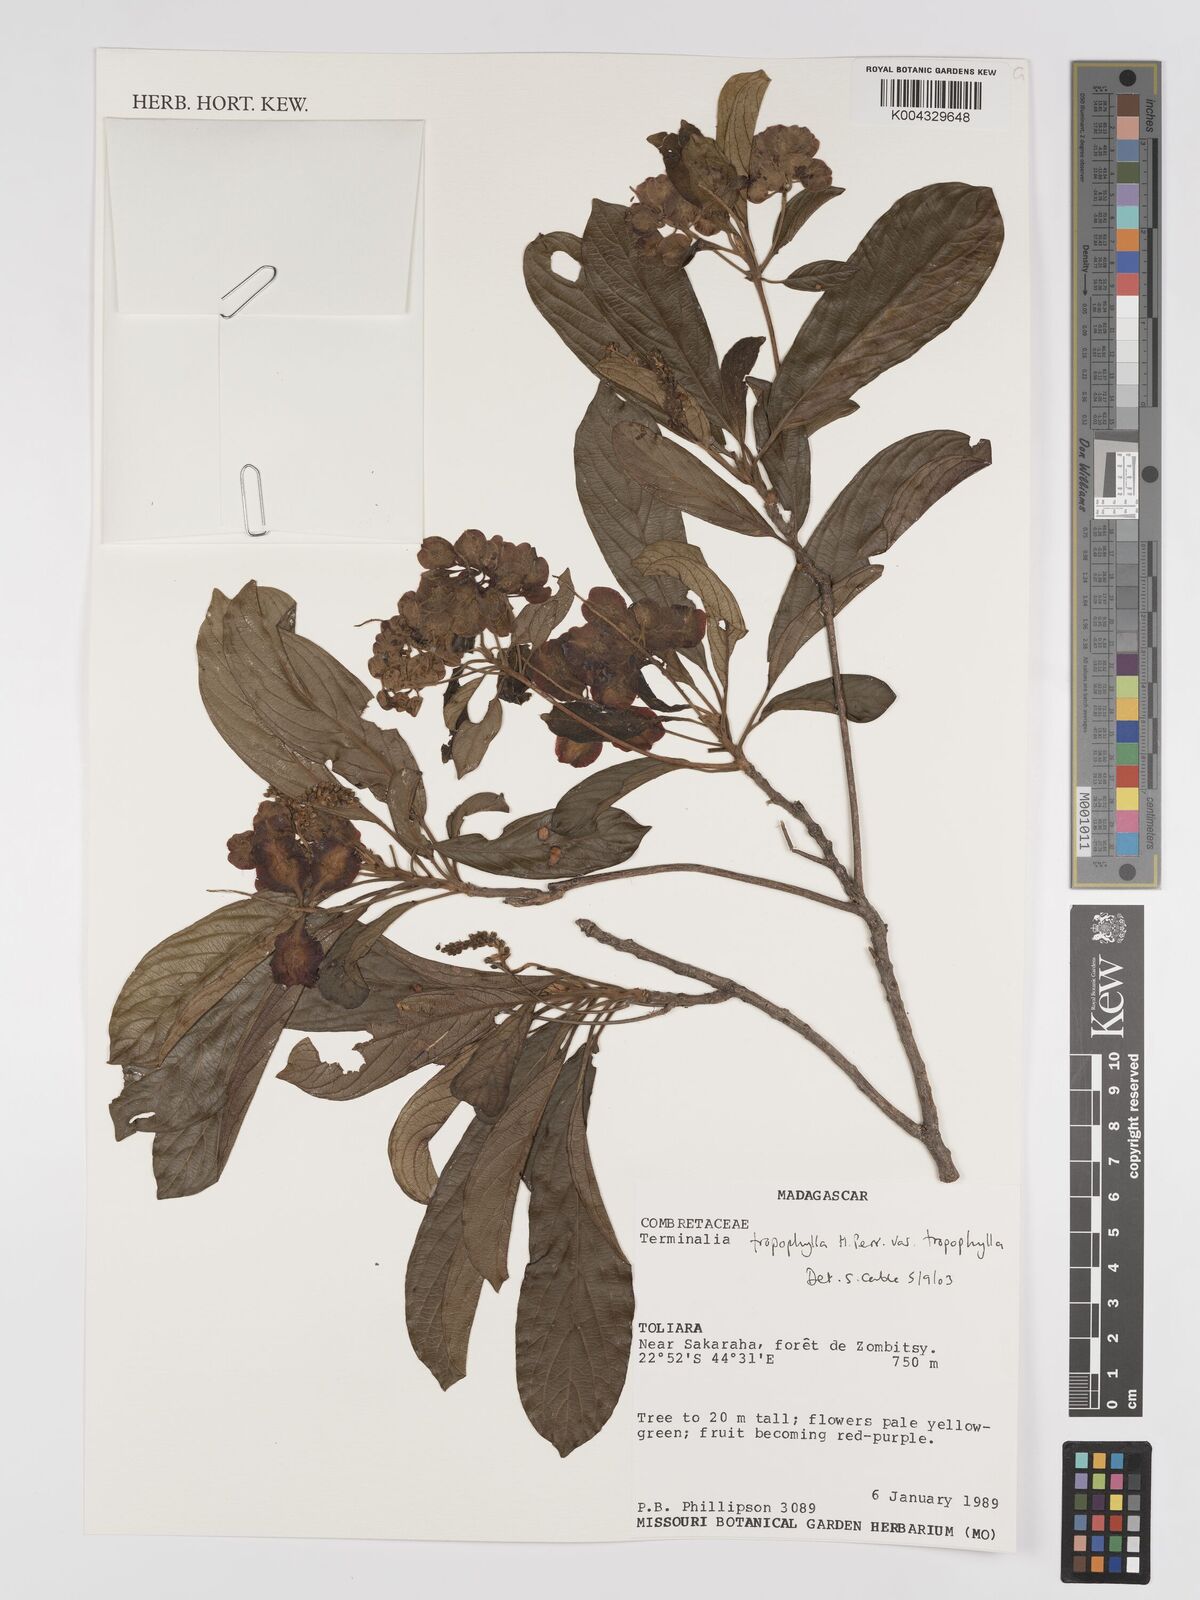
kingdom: Plantae
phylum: Tracheophyta
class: Magnoliopsida
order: Myrtales
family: Combretaceae
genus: Terminalia
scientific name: Terminalia tropophylla
